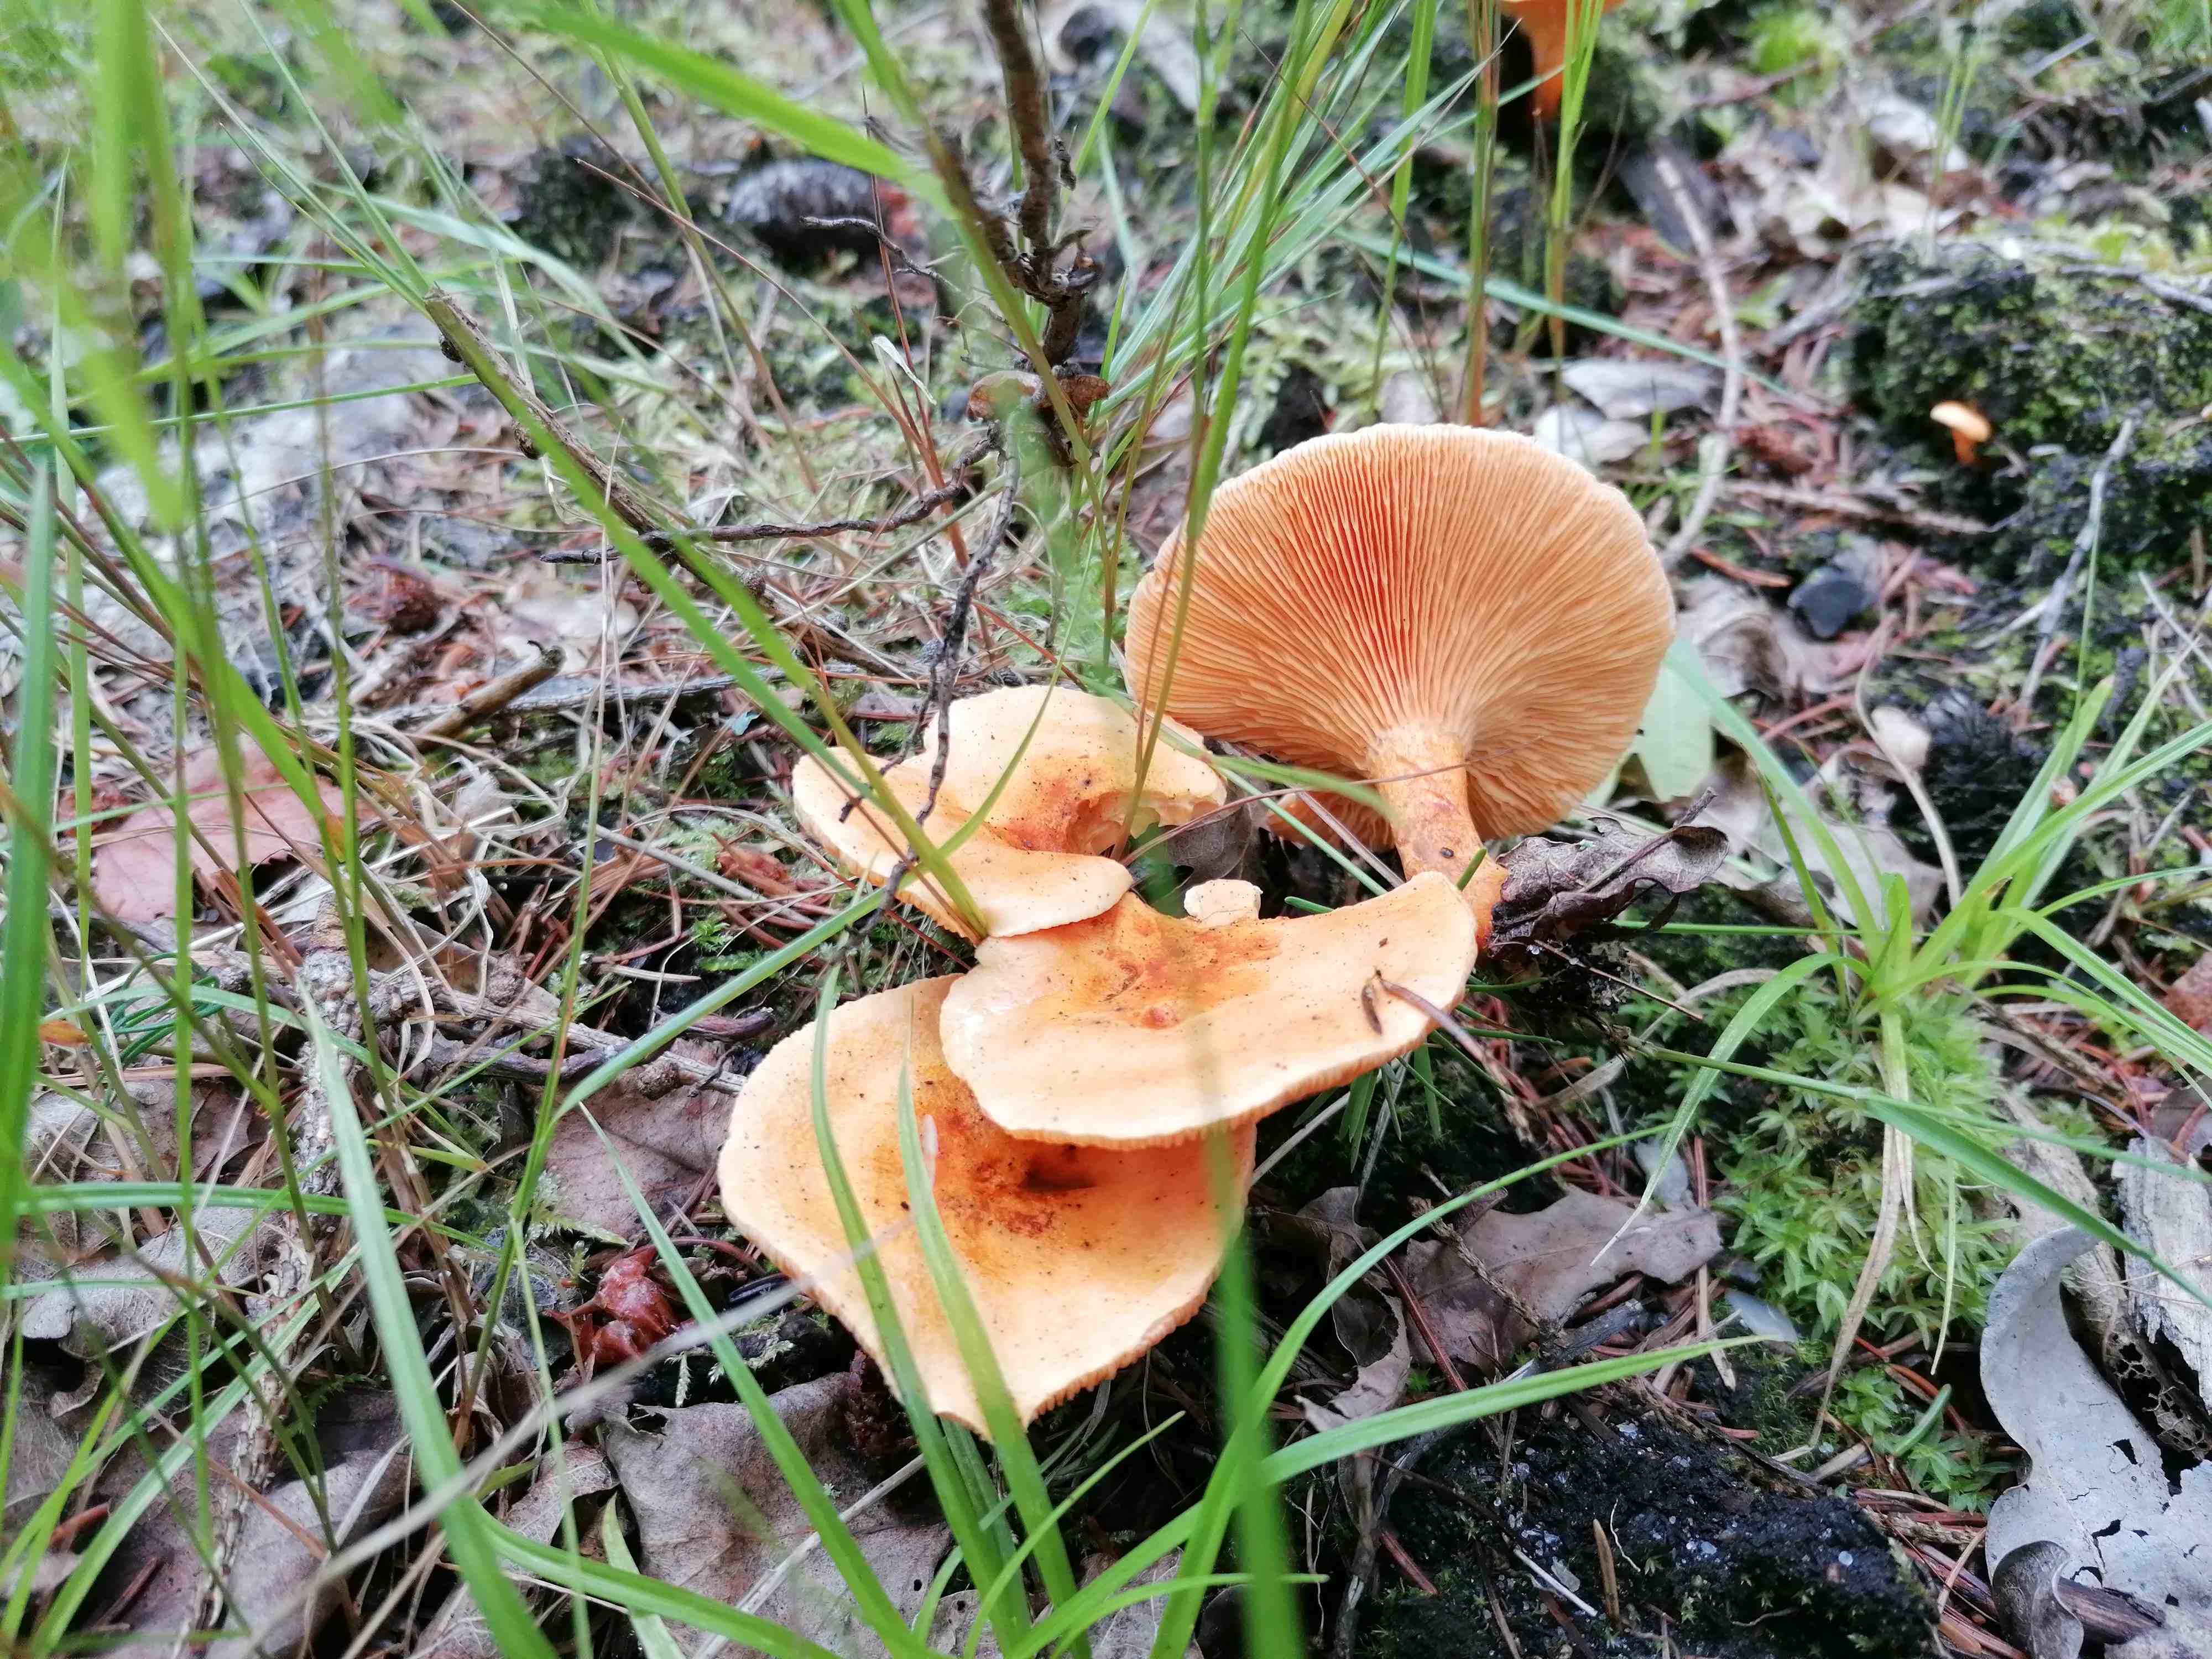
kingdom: Fungi
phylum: Basidiomycota
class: Agaricomycetes
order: Boletales
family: Hygrophoropsidaceae
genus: Hygrophoropsis
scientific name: Hygrophoropsis aurantiaca
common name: almindelig orangekantarel
